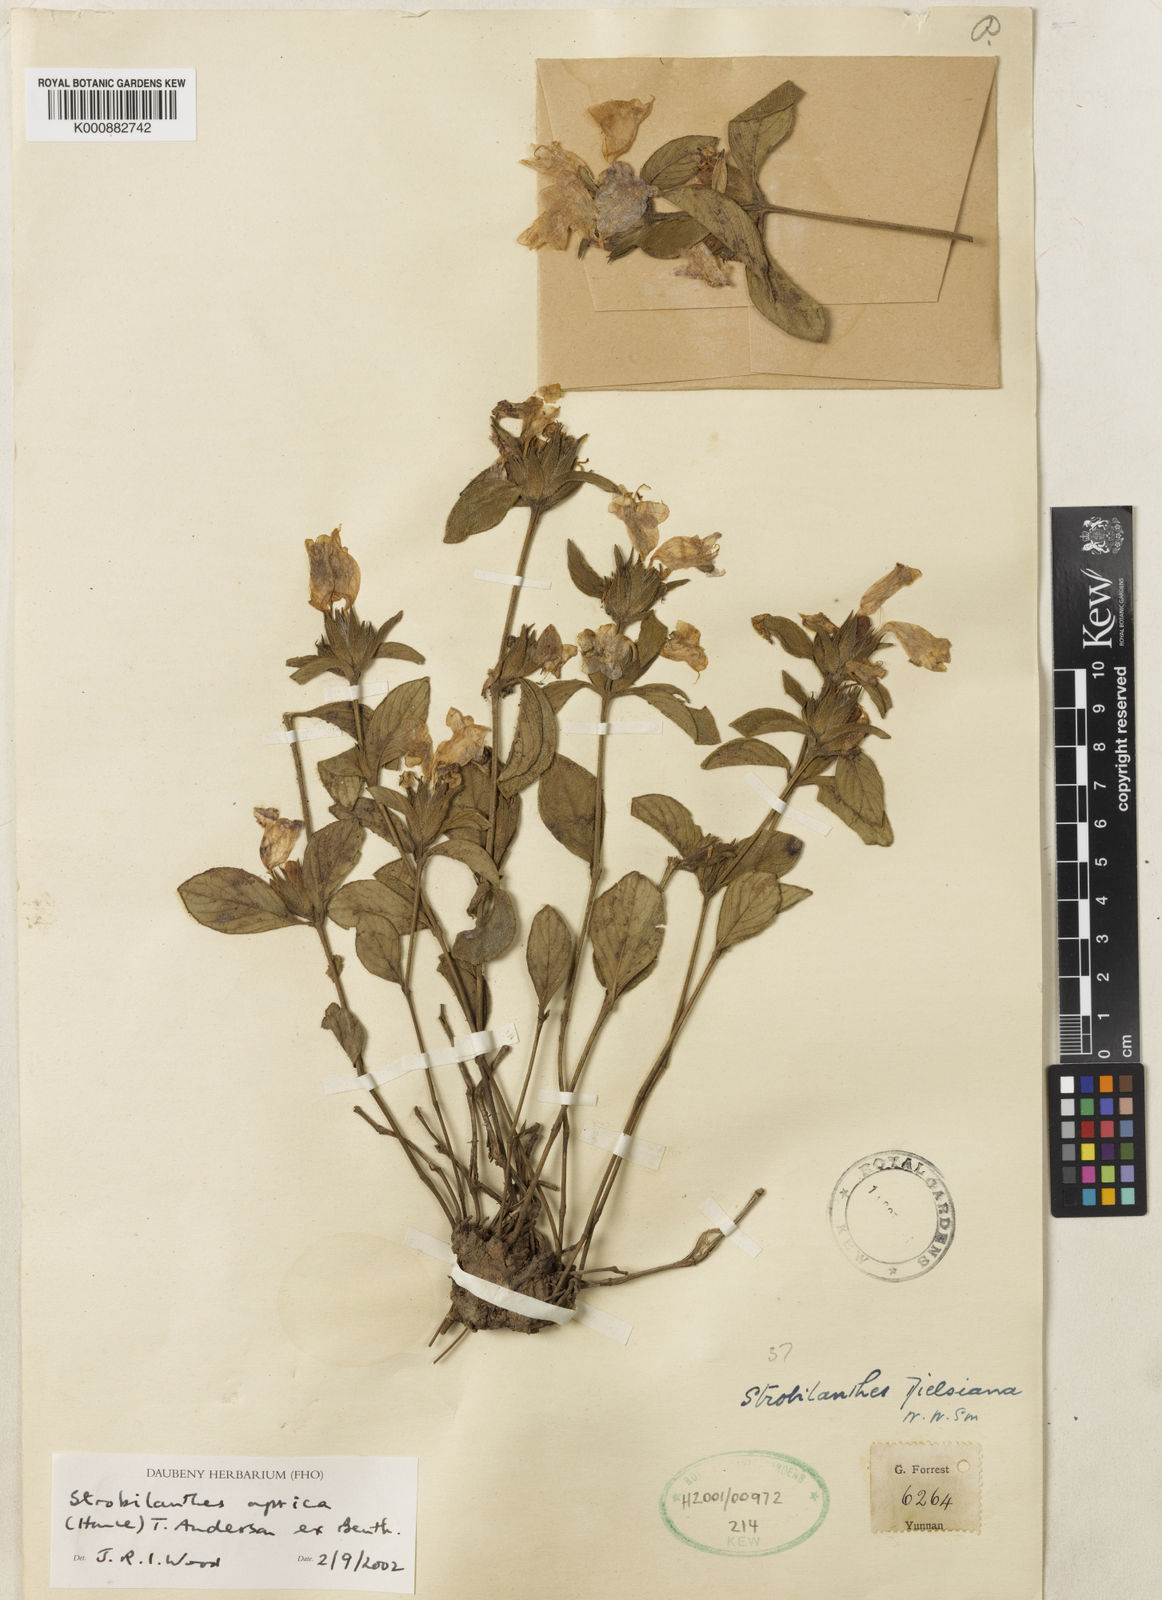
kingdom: Plantae
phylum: Tracheophyta
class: Magnoliopsida
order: Lamiales
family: Acanthaceae
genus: Strobilanthes
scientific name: Strobilanthes aprica
